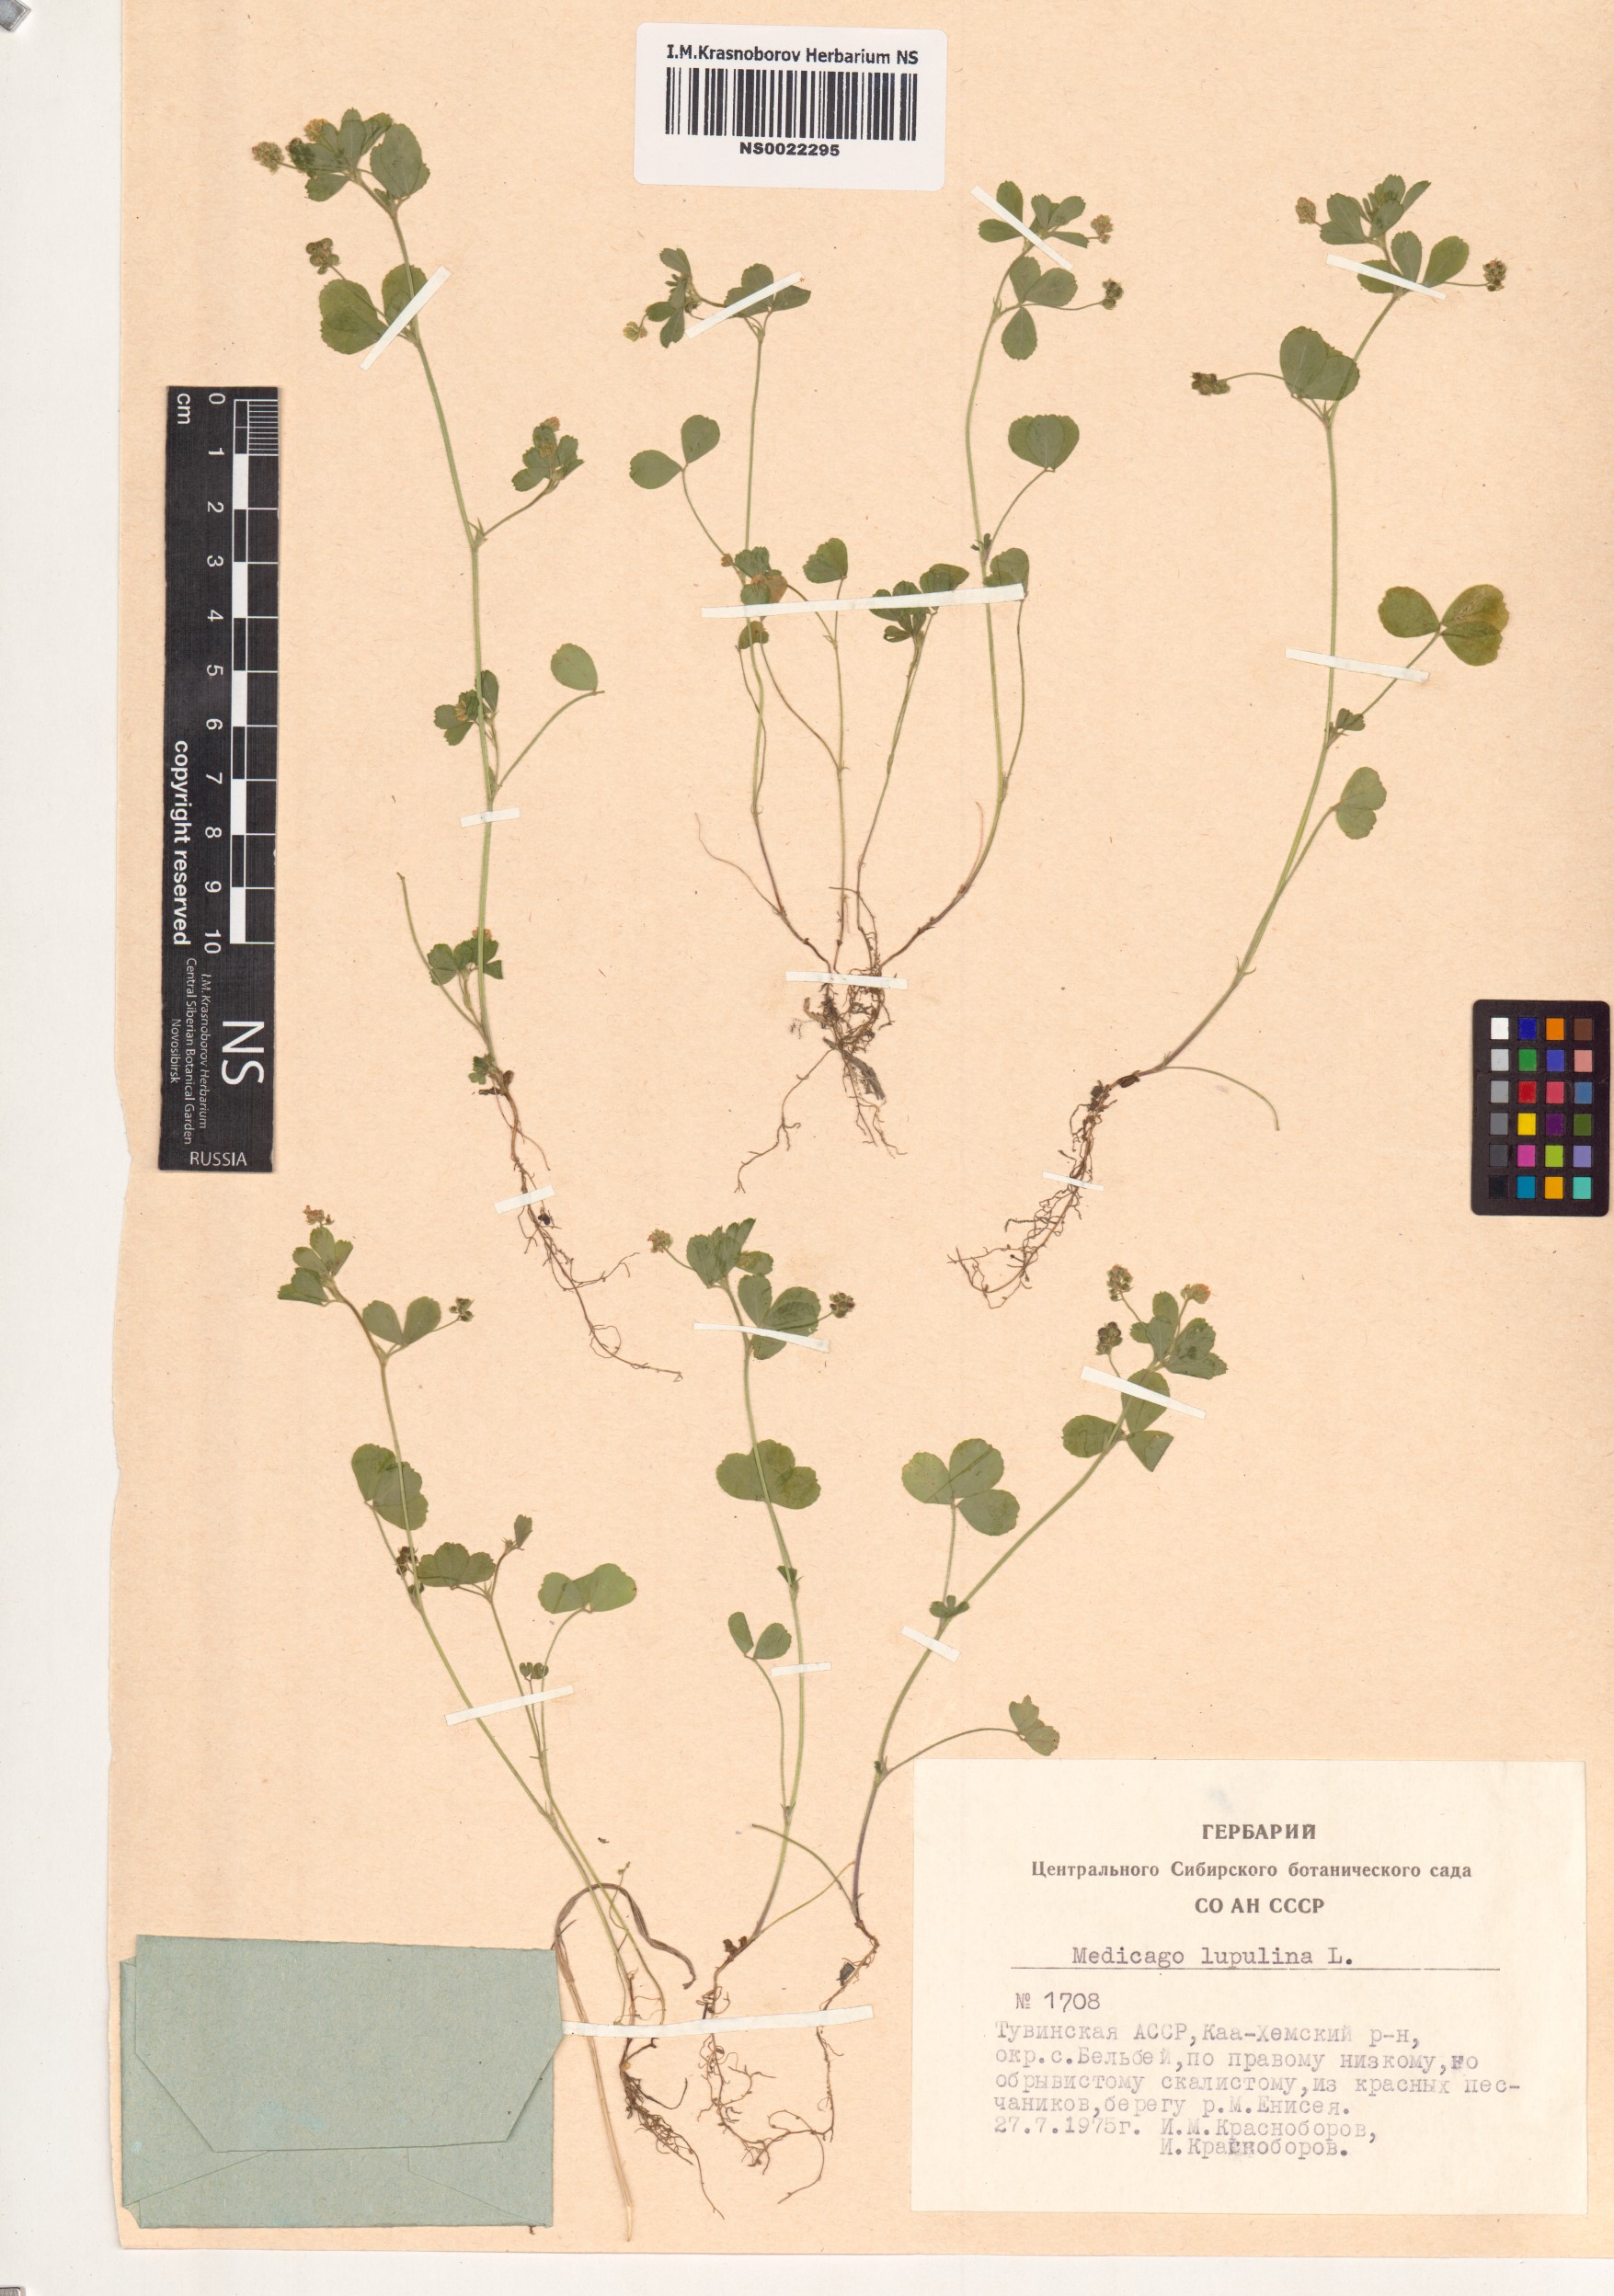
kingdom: Plantae
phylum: Tracheophyta
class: Magnoliopsida
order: Fabales
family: Fabaceae
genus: Medicago
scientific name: Medicago lupulina
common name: Black medick
